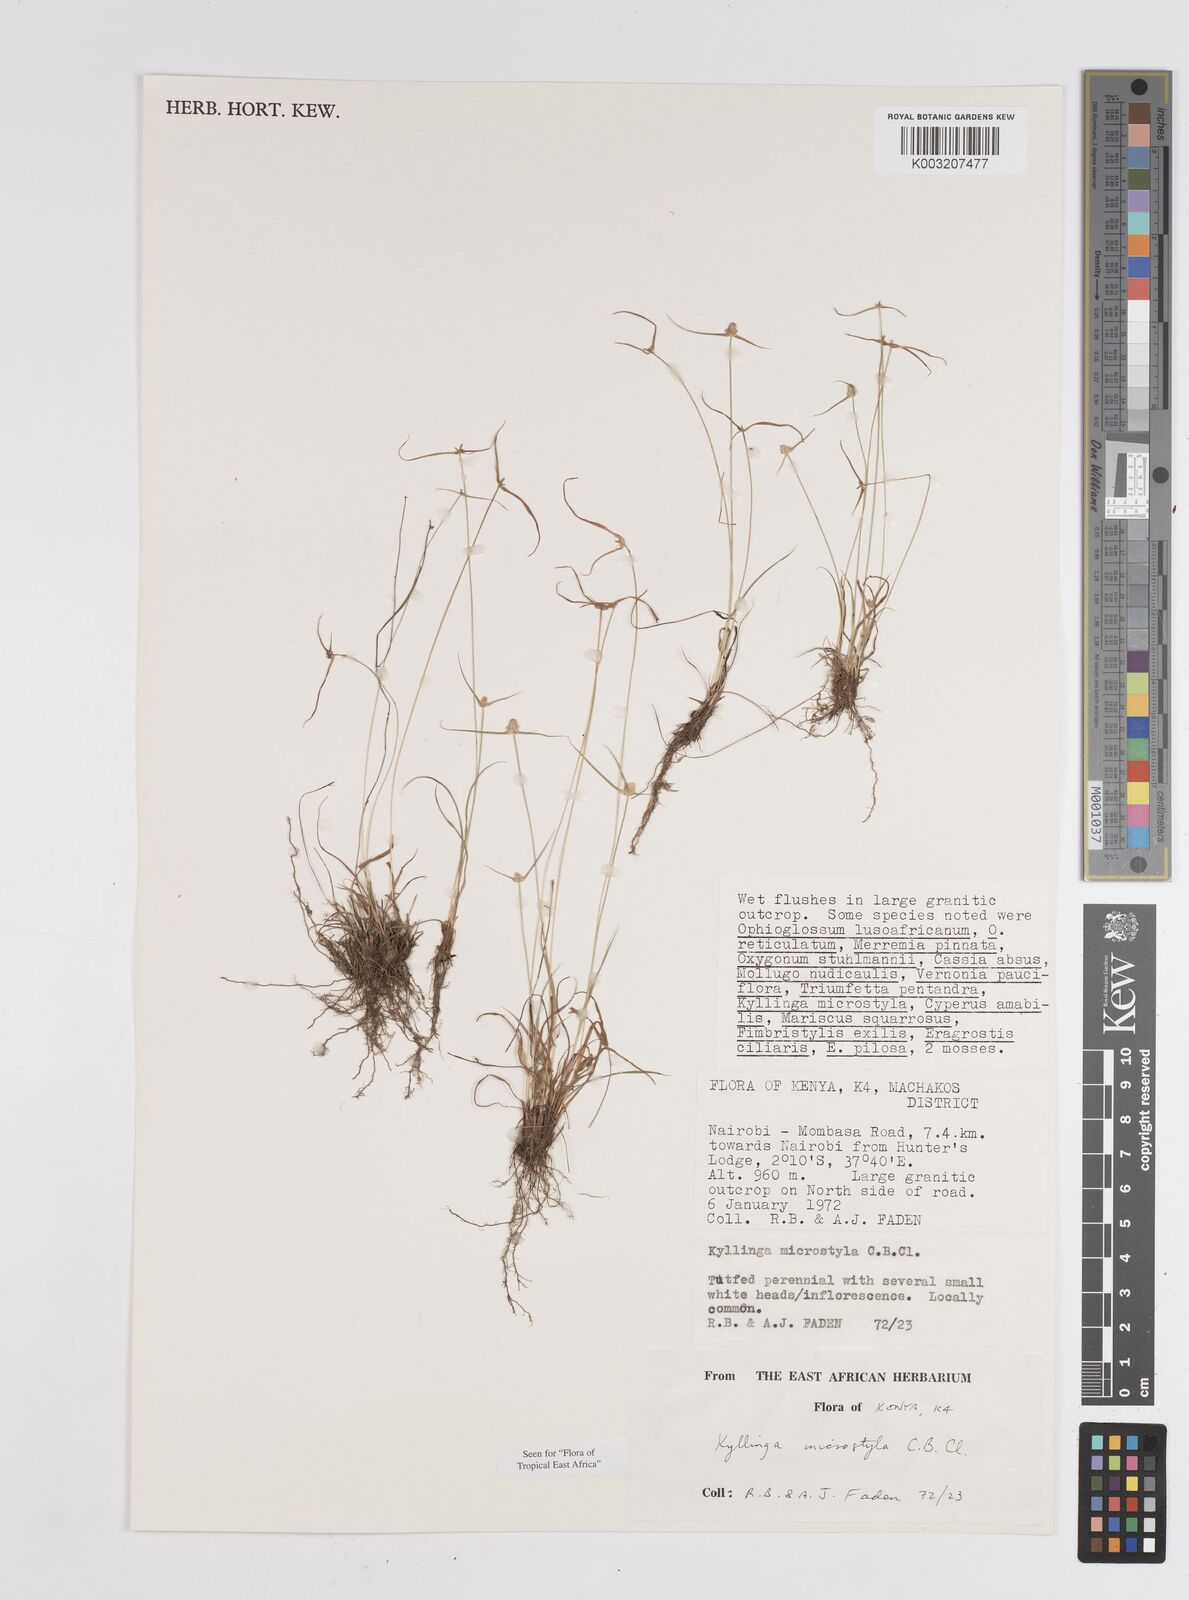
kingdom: Plantae
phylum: Tracheophyta
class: Liliopsida
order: Poales
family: Cyperaceae
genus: Cyperus
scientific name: Cyperus microstylus
